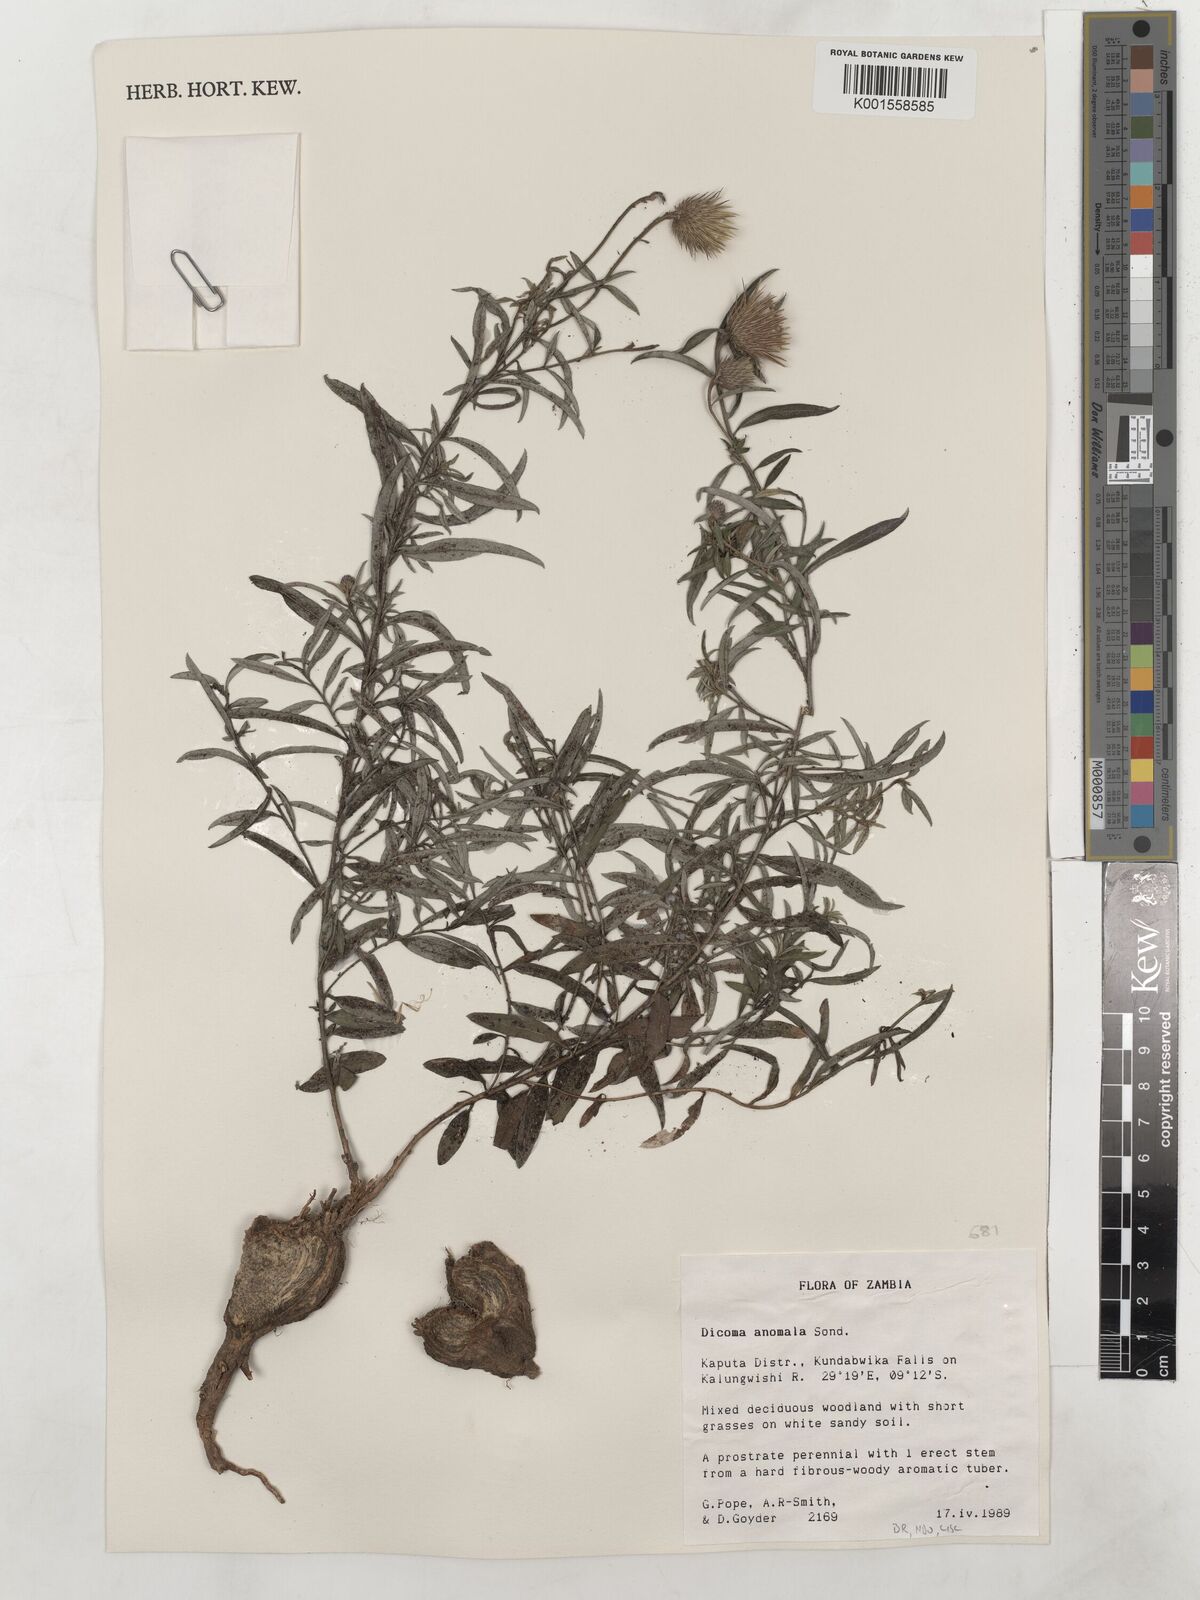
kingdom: Plantae
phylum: Tracheophyta
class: Magnoliopsida
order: Asterales
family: Asteraceae
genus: Dicoma
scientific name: Dicoma anomala
